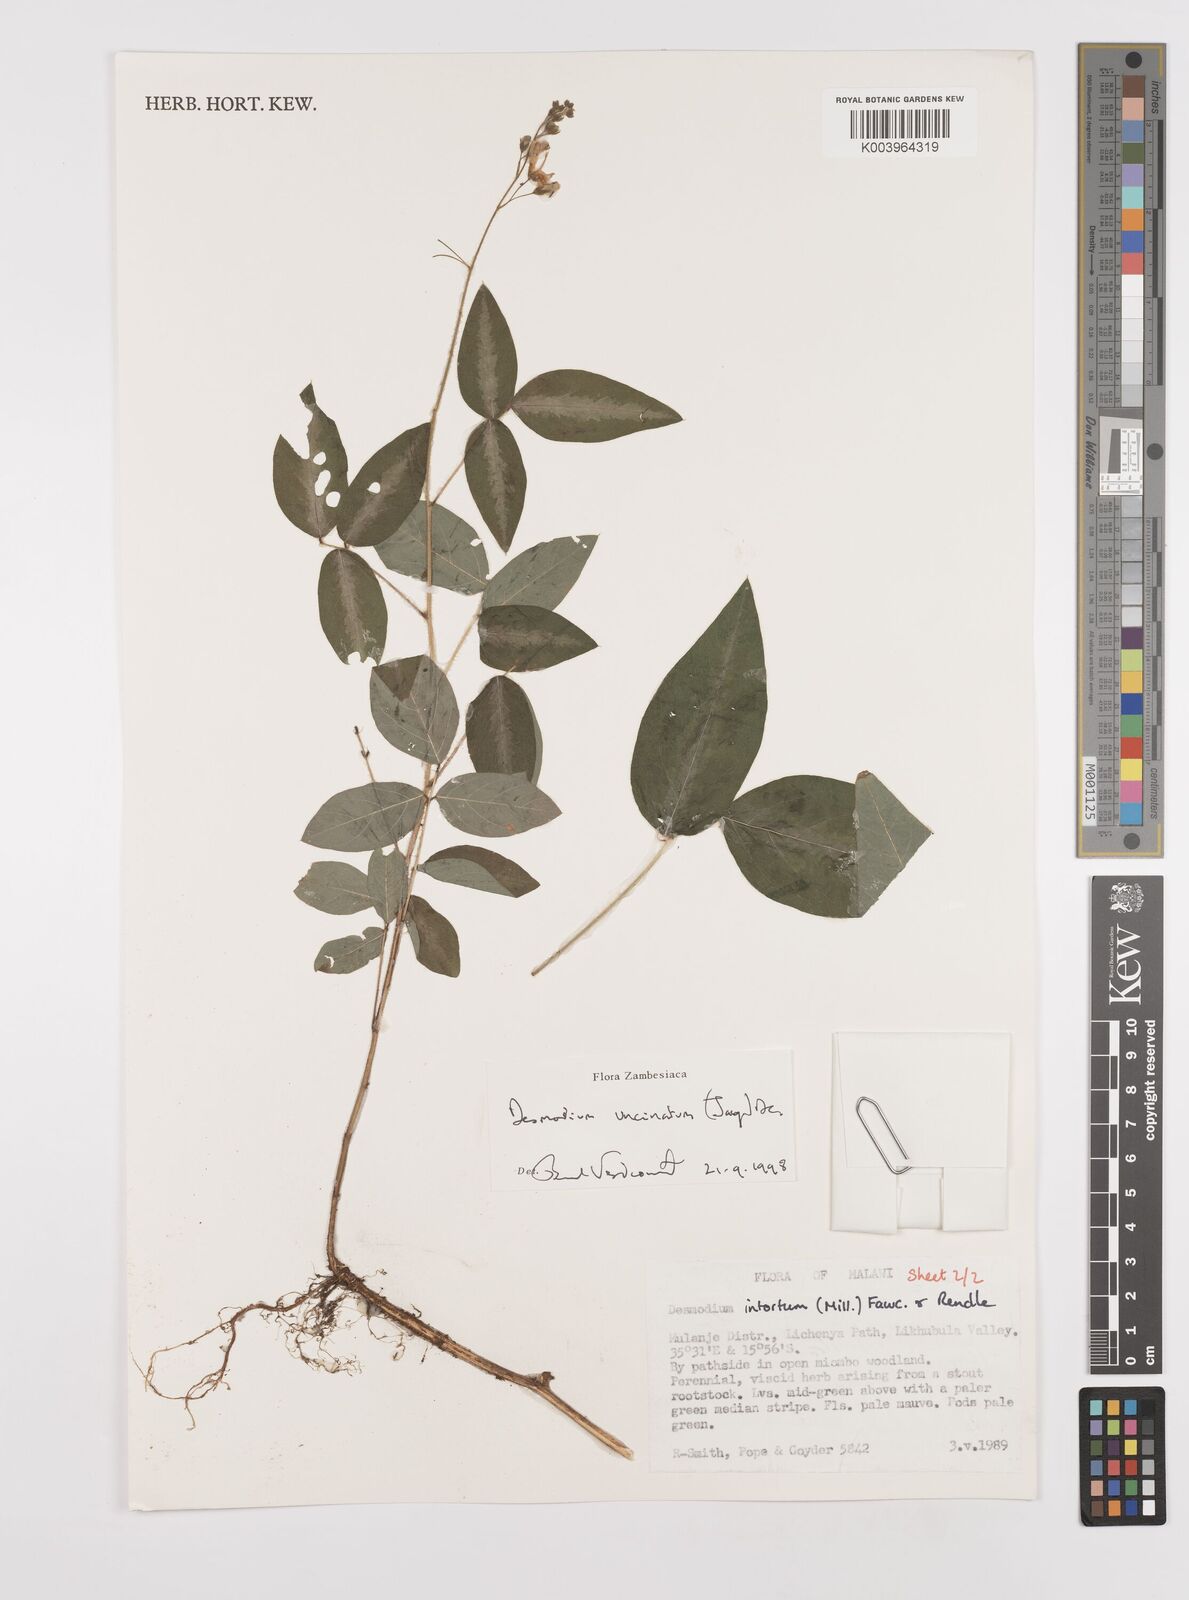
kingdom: Plantae
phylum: Tracheophyta
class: Magnoliopsida
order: Fabales
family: Fabaceae
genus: Desmodium
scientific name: Desmodium uncinatum
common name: Silverleaf desmodium
